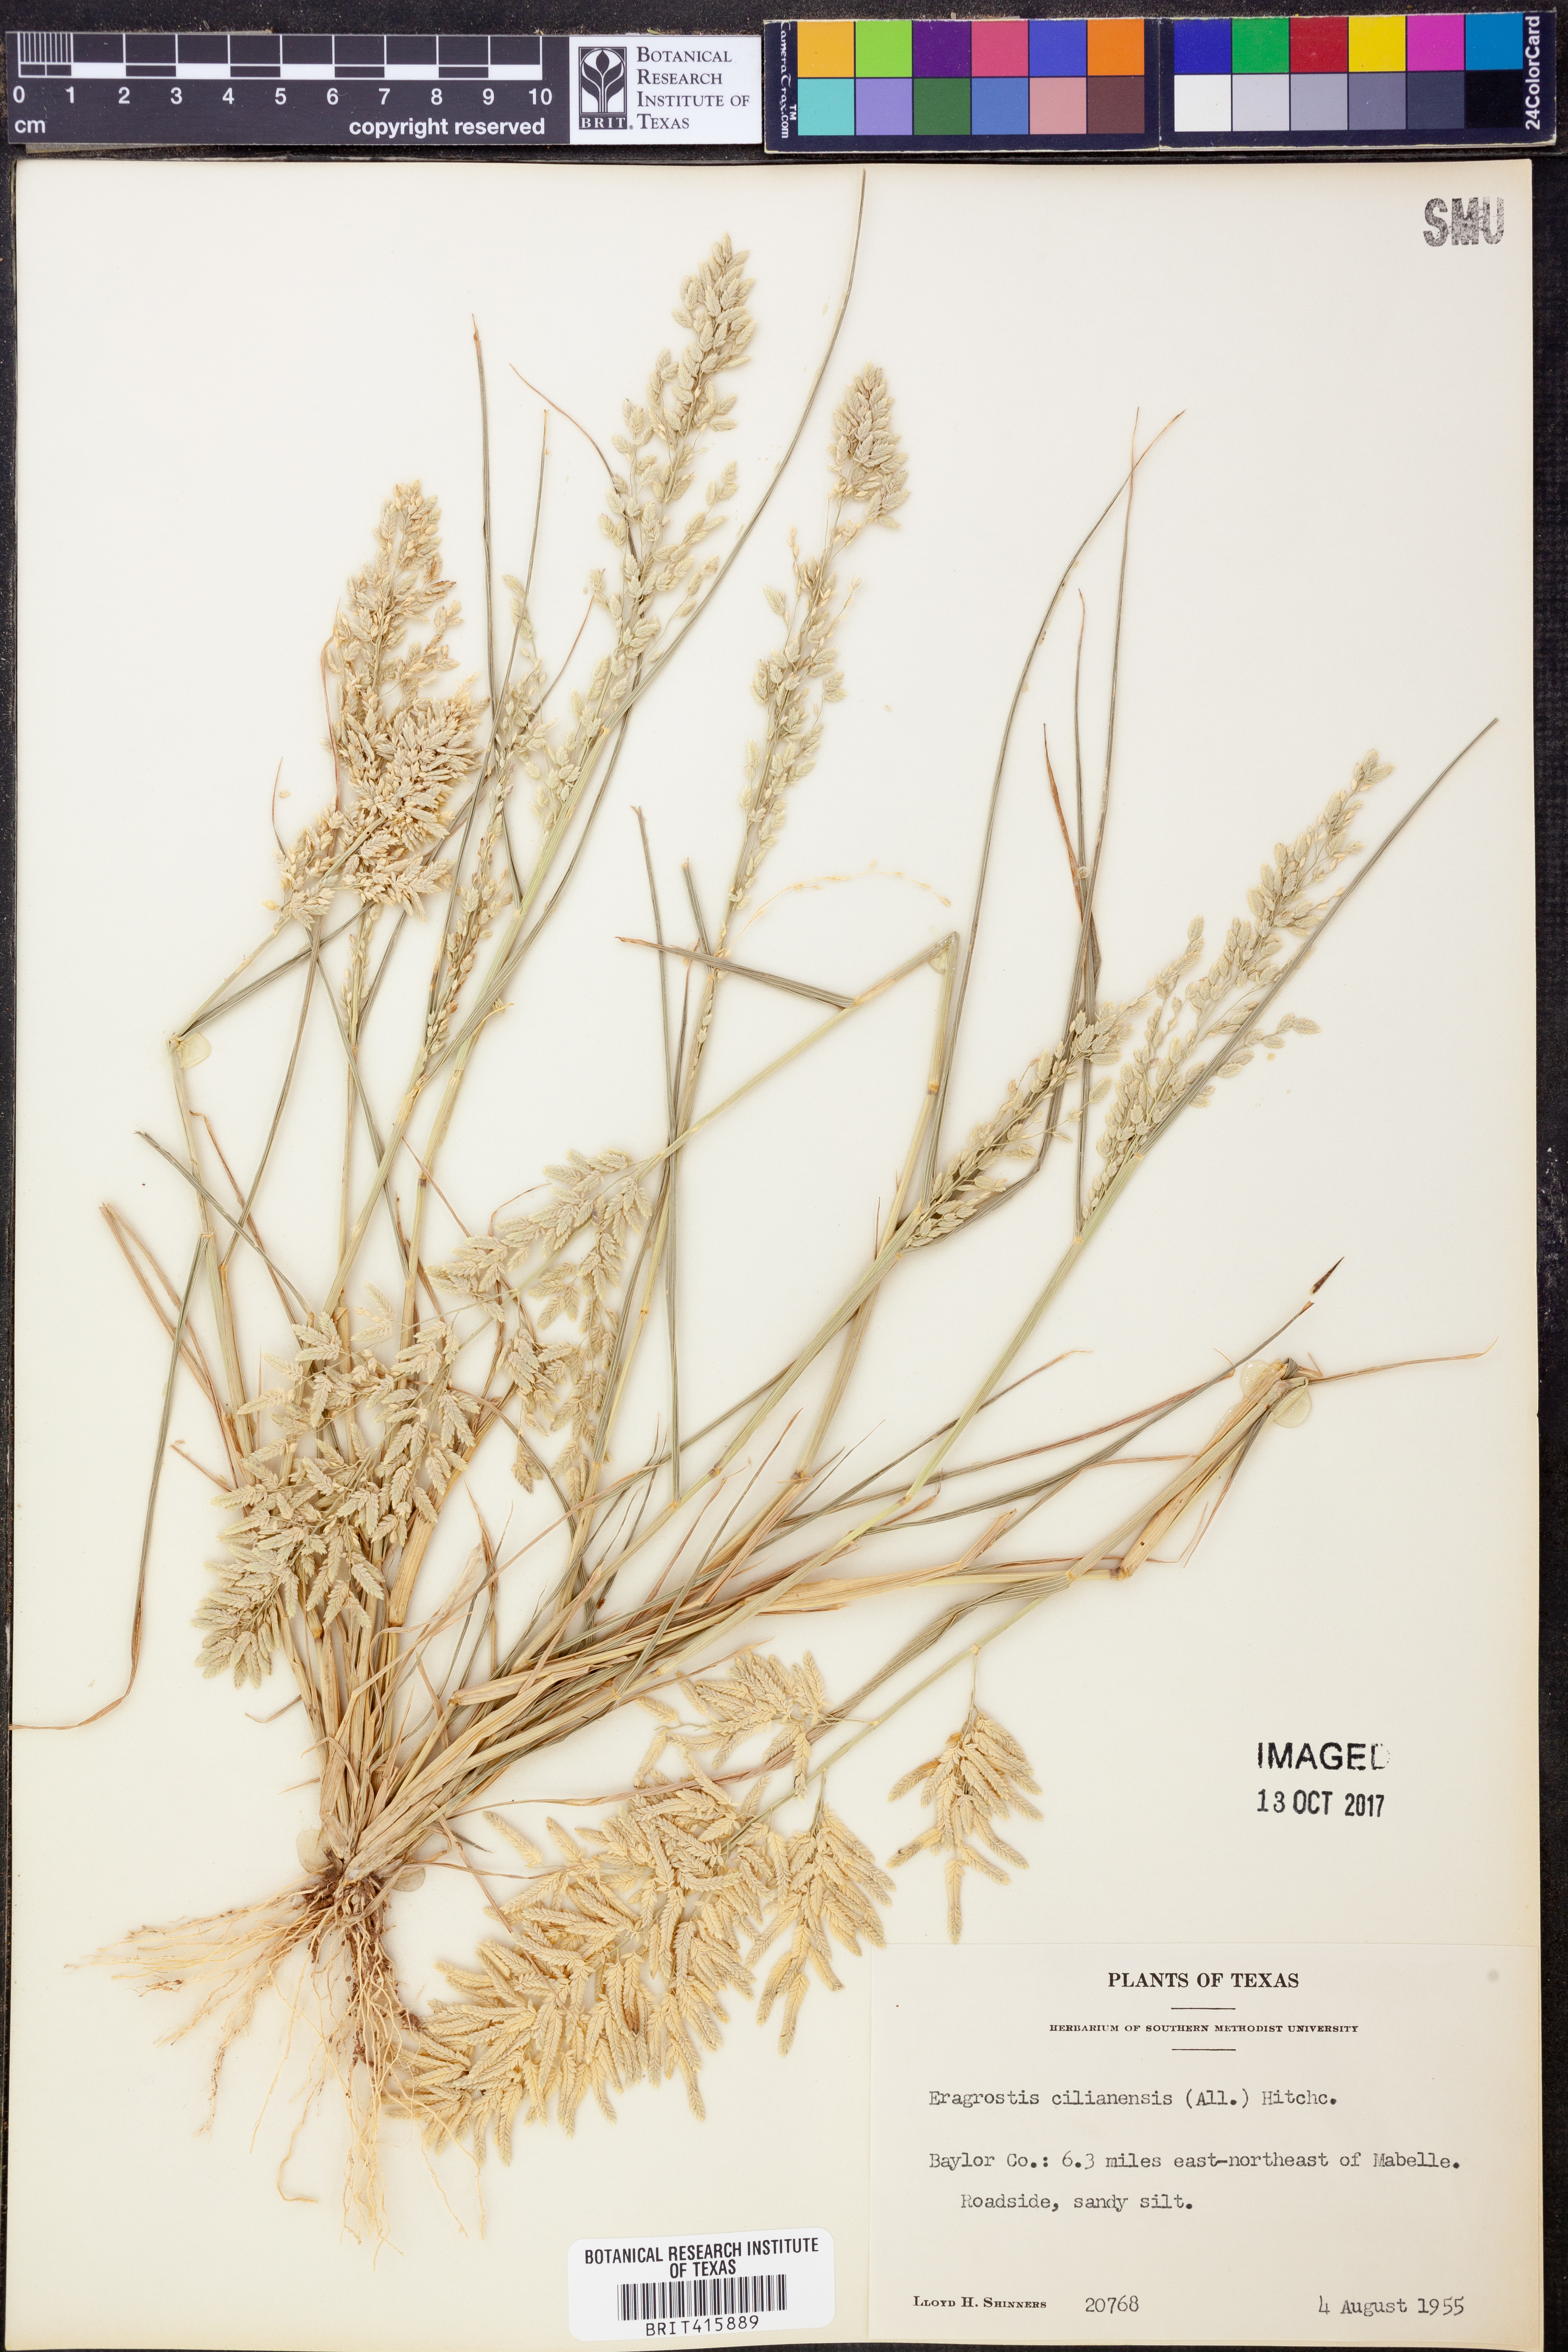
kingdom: Plantae
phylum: Tracheophyta
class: Liliopsida
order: Poales
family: Poaceae
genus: Eragrostis
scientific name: Eragrostis cilianensis
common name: Stinkgrass
